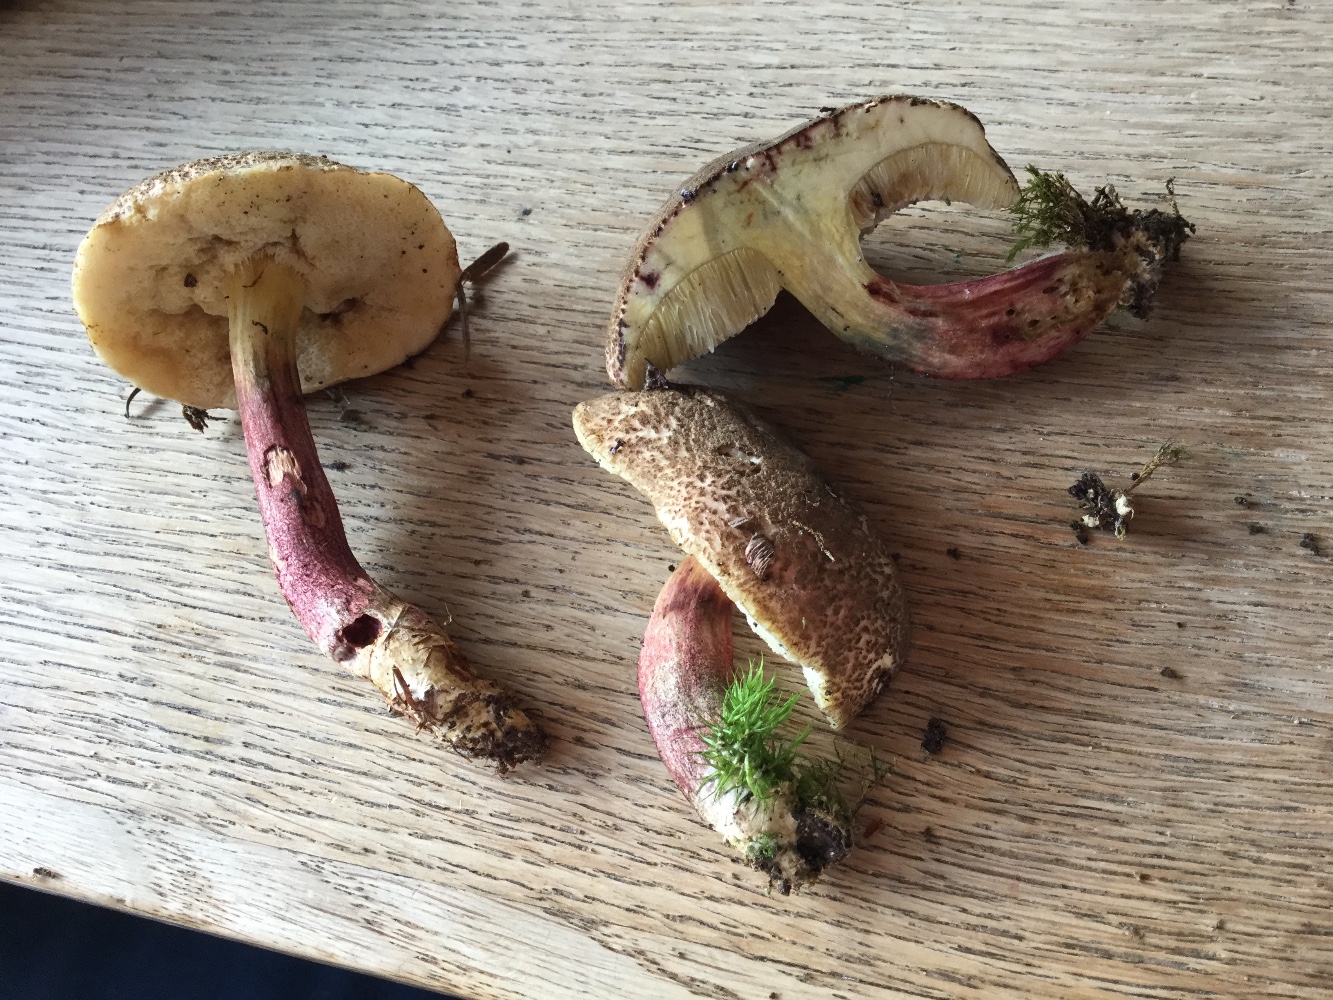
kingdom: Fungi
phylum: Basidiomycota
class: Agaricomycetes
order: Boletales
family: Boletaceae
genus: Xerocomellus
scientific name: Xerocomellus chrysenteron
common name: rødsprukken rørhat
